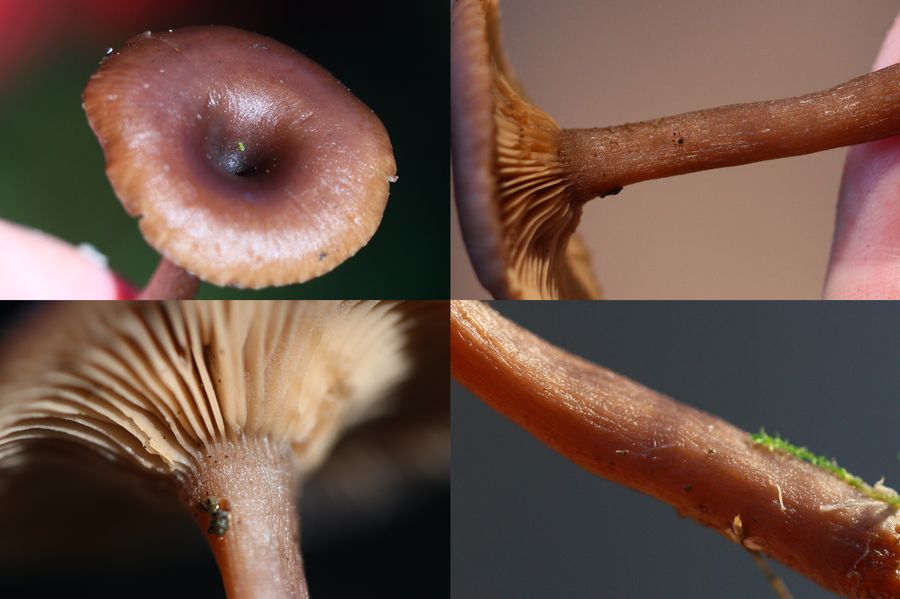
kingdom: Fungi
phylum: Basidiomycota
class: Agaricomycetes
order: Agaricales
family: Pseudoclitocybaceae
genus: Pseudoclitocybe
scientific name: Pseudoclitocybe cyathiformis
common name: almindelig bægertragthat
